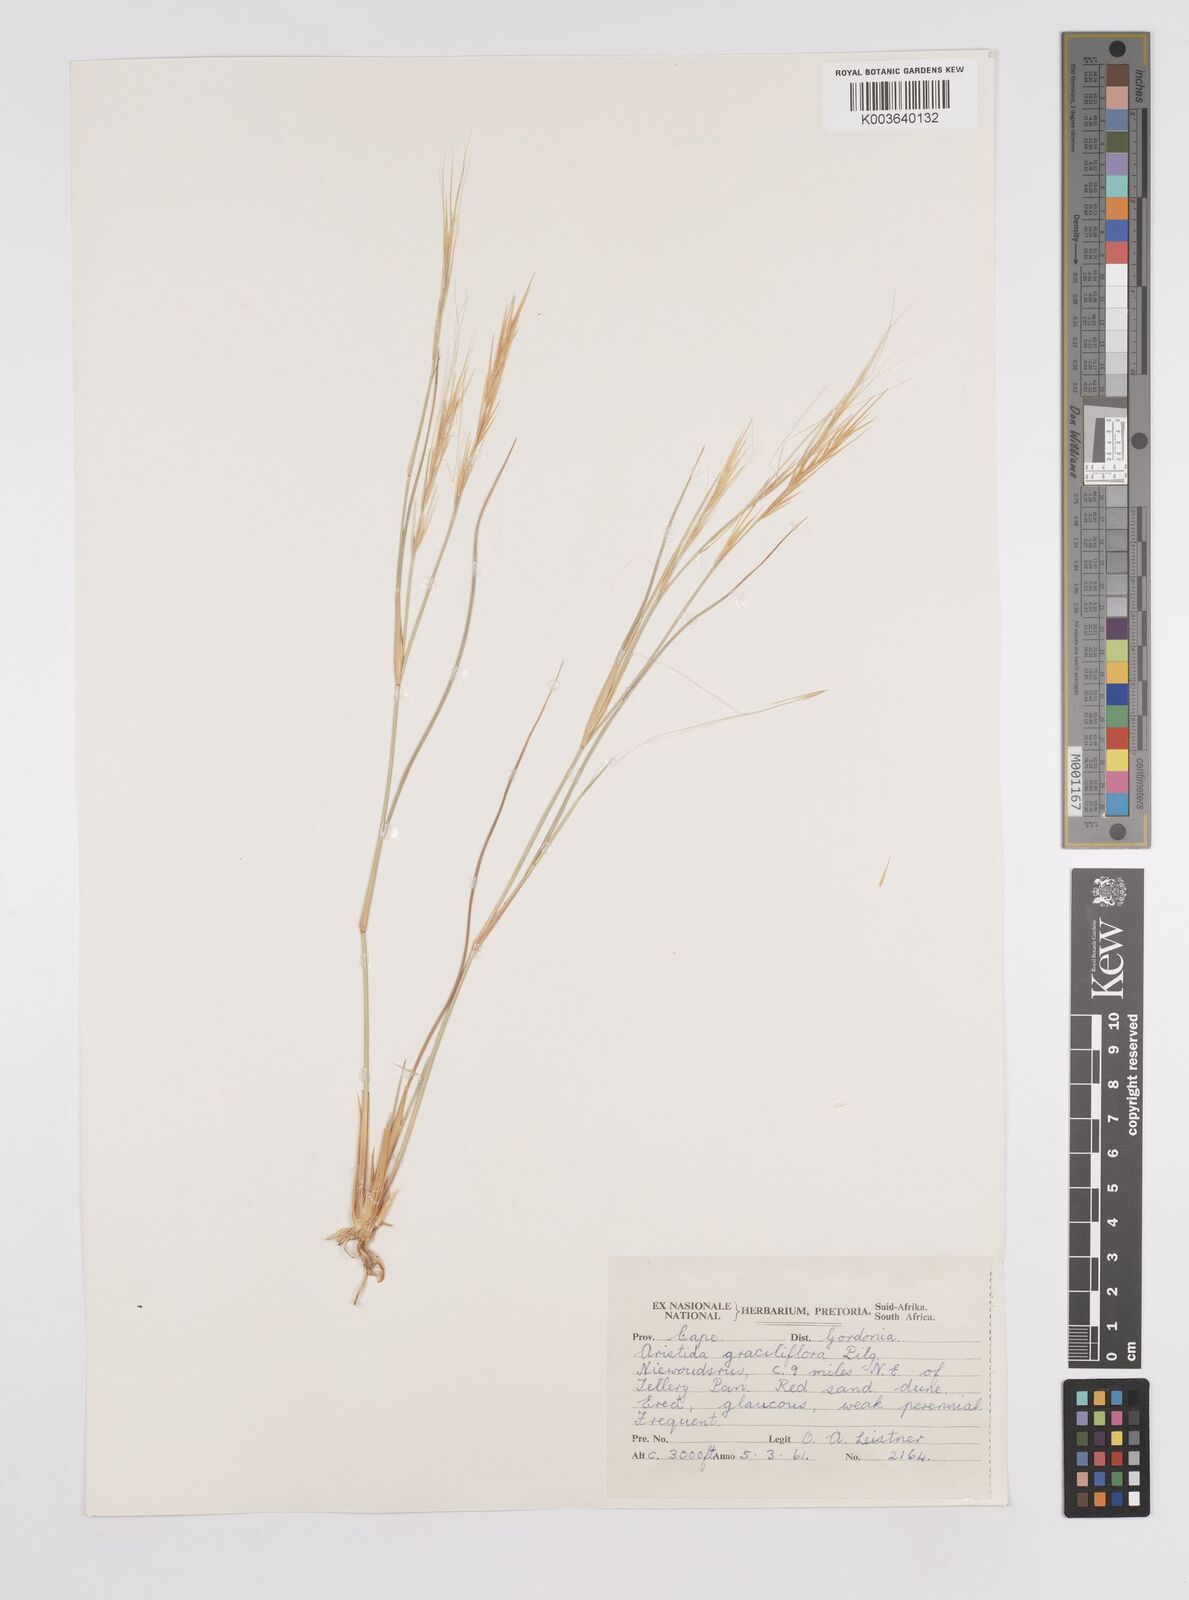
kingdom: Plantae
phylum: Tracheophyta
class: Liliopsida
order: Poales
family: Poaceae
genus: Aristida
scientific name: Aristida stipitata
